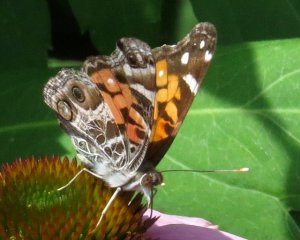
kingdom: Animalia
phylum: Arthropoda
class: Insecta
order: Lepidoptera
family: Nymphalidae
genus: Vanessa
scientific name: Vanessa virginiensis
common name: American Lady
